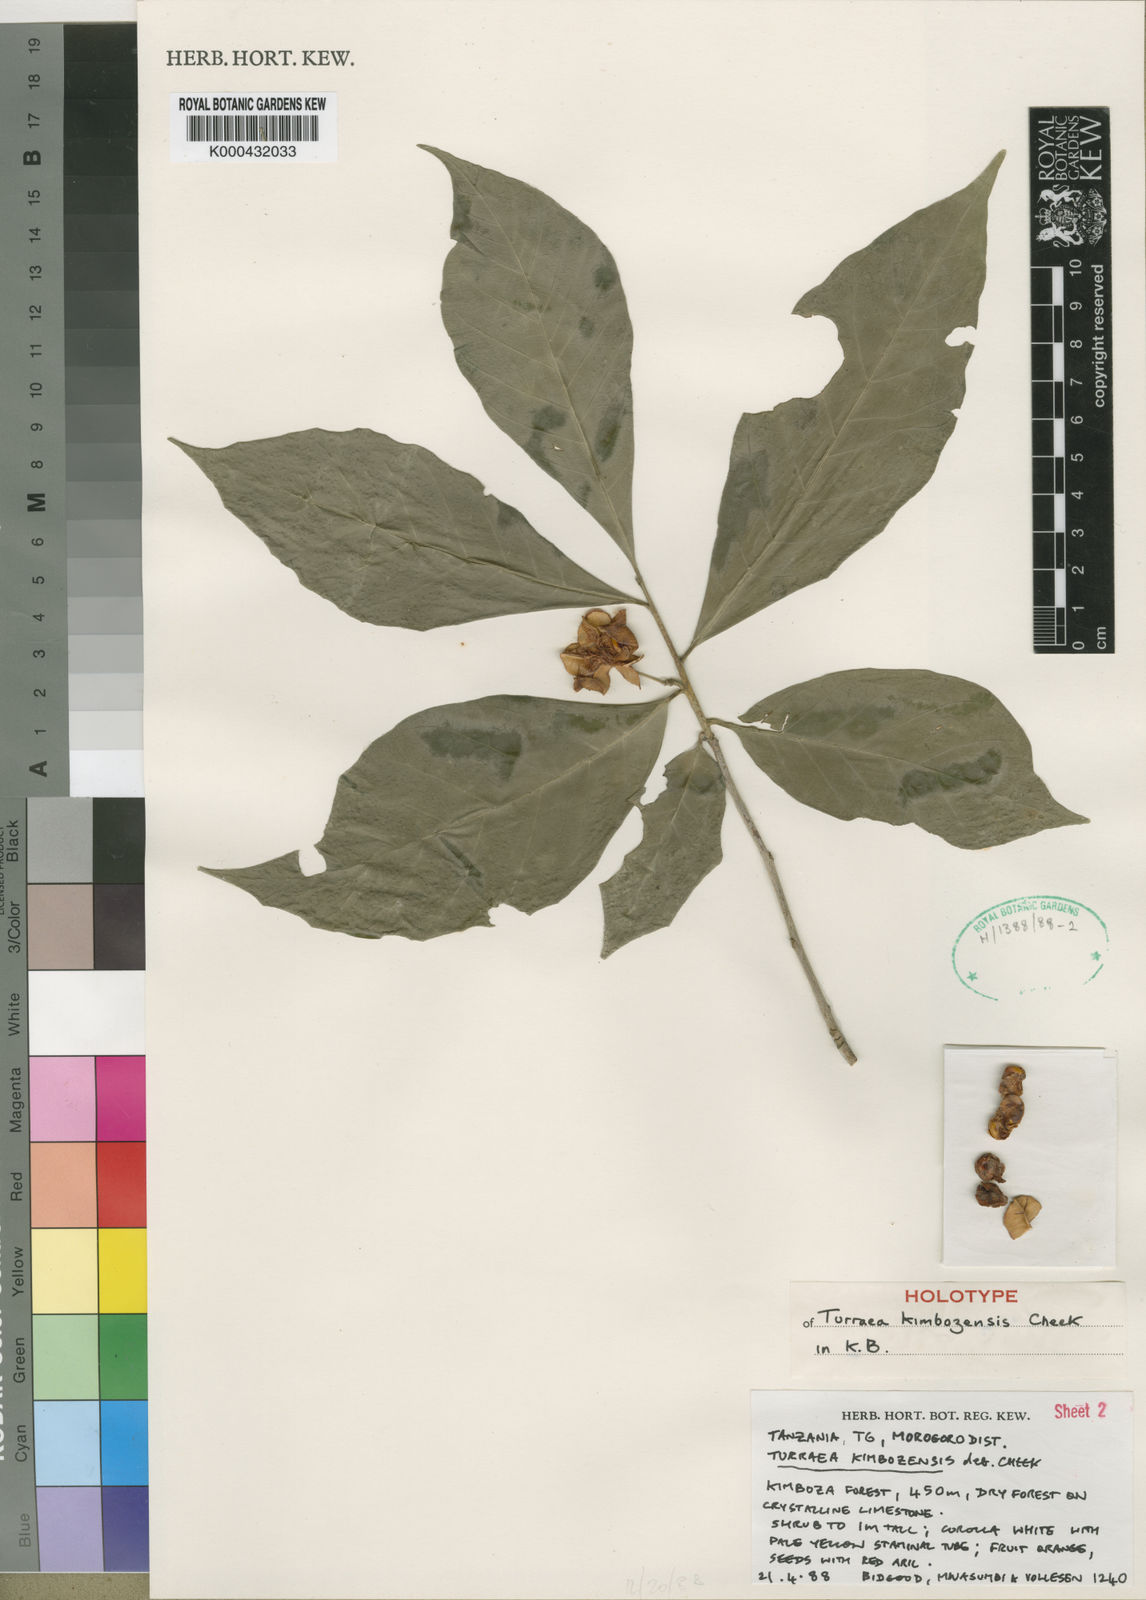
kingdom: Plantae
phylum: Tracheophyta
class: Magnoliopsida
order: Sapindales
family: Meliaceae
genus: Turraea
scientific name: Turraea kimbozensis
